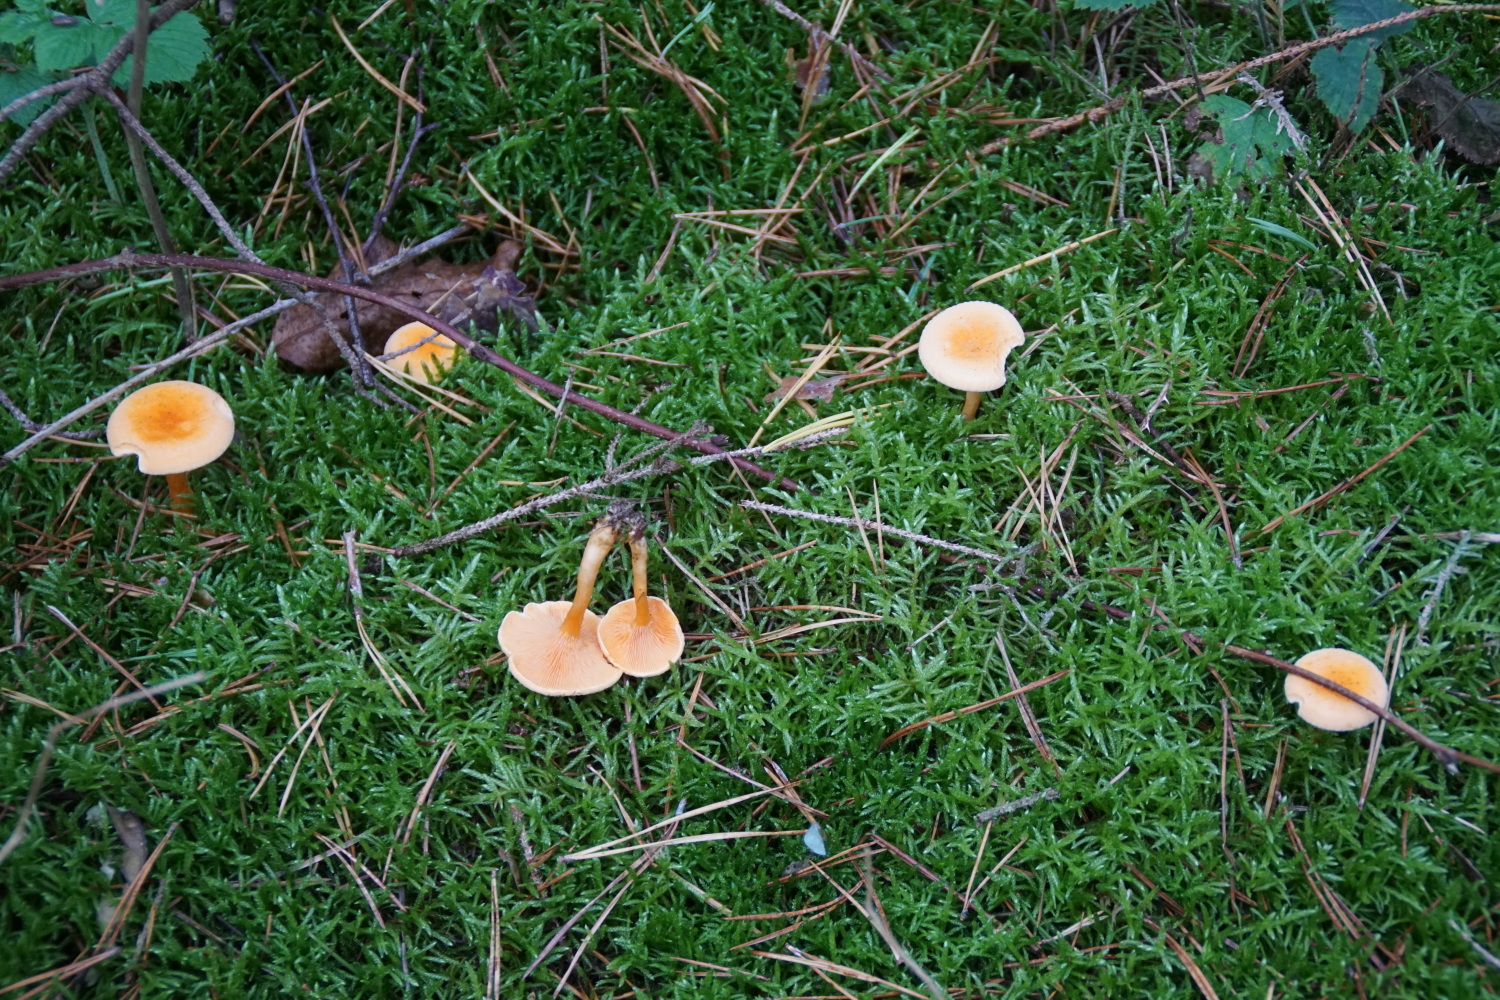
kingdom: Fungi
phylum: Basidiomycota
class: Agaricomycetes
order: Boletales
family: Hygrophoropsidaceae
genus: Hygrophoropsis
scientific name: Hygrophoropsis aurantiaca
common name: almindelig orangekantarel
